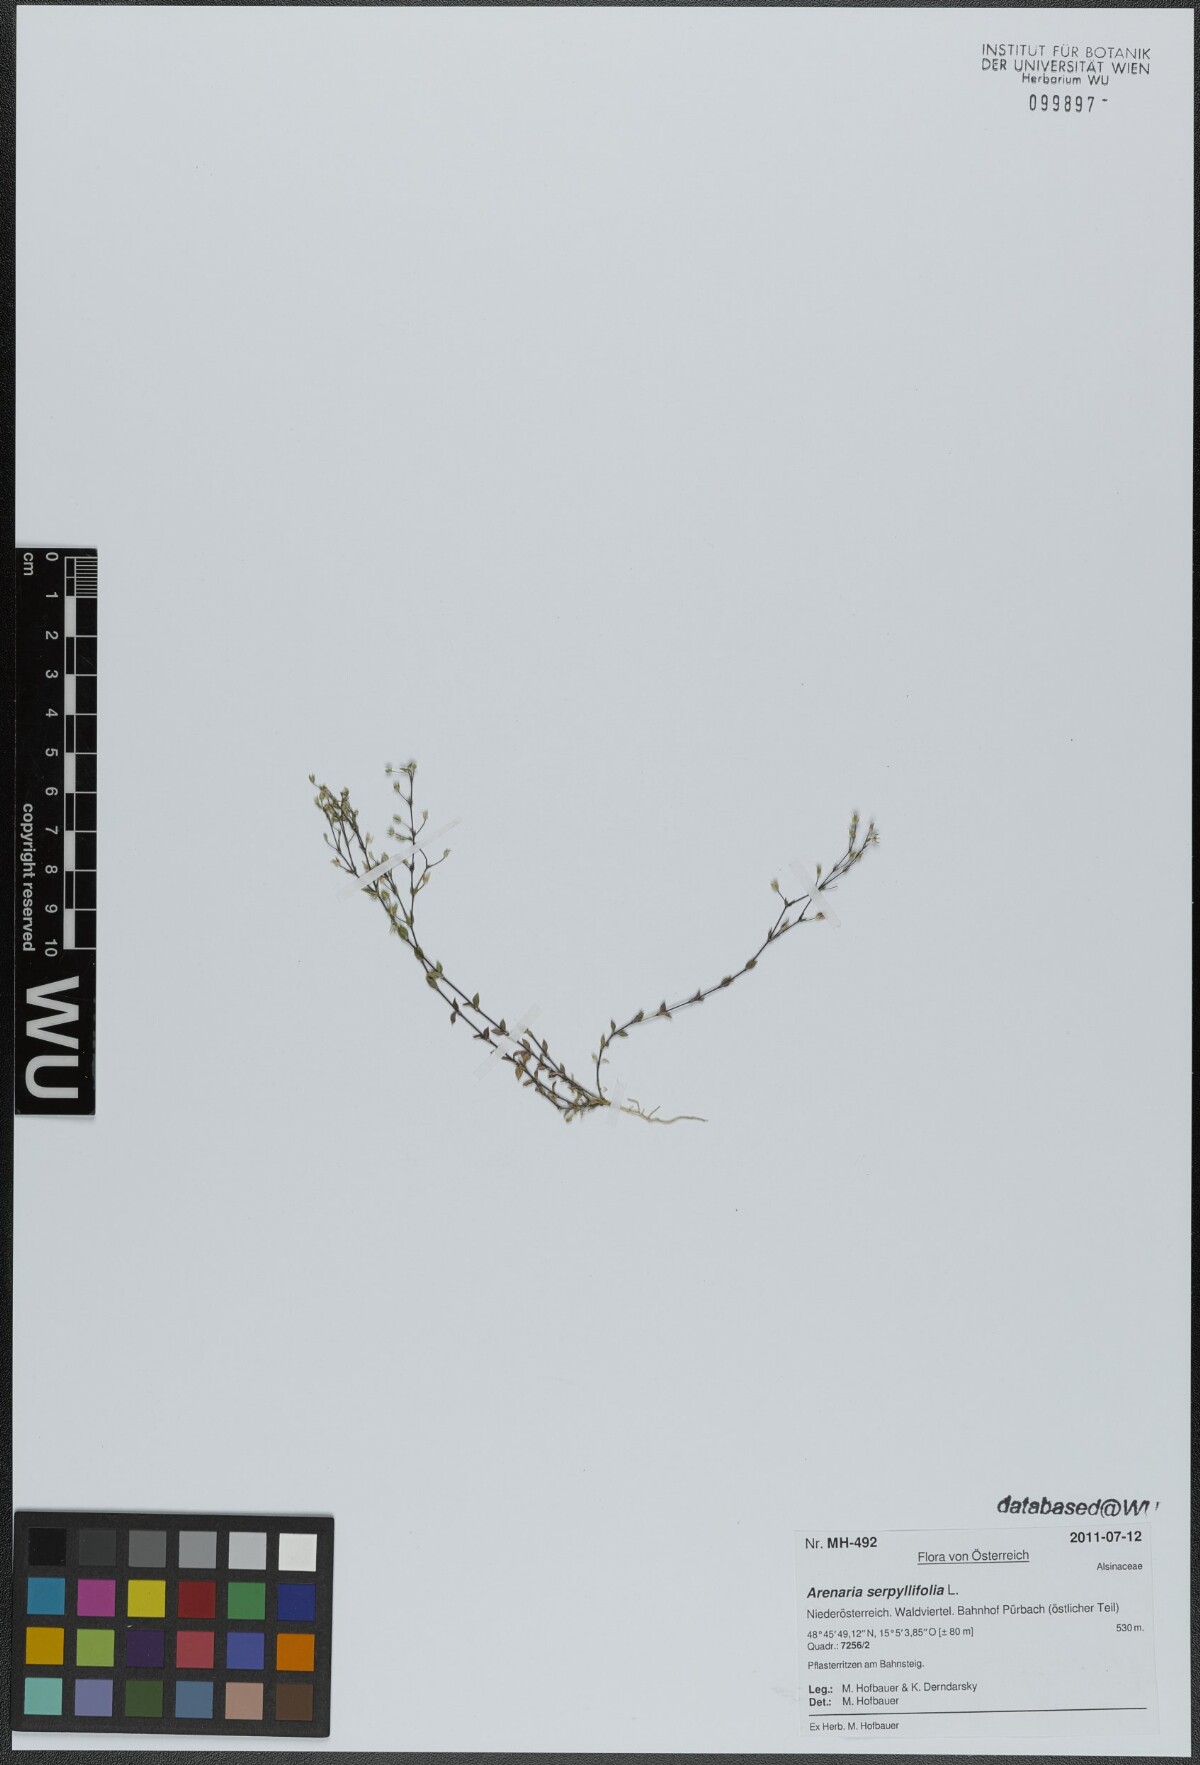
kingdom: Plantae
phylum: Tracheophyta
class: Magnoliopsida
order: Caryophyllales
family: Caryophyllaceae
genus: Arenaria
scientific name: Arenaria serpyllifolia
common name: Thyme-leaved sandwort
